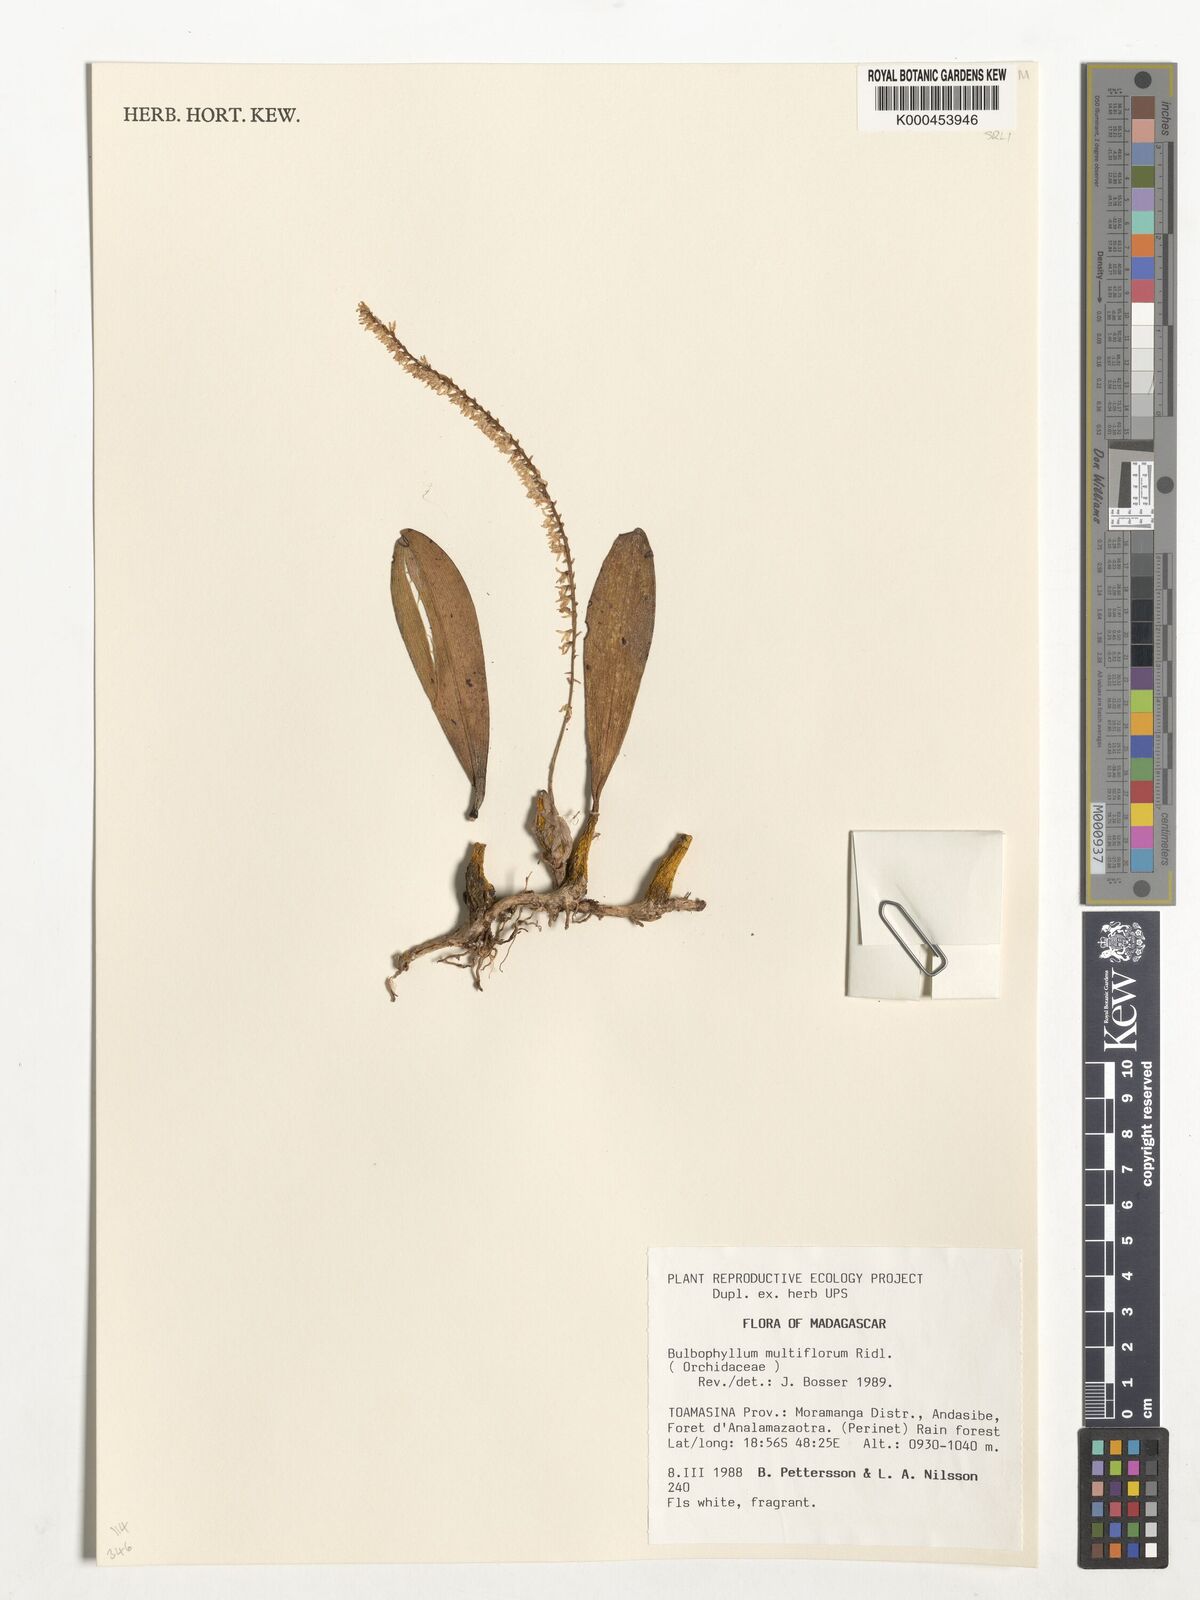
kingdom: Plantae
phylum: Tracheophyta
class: Liliopsida
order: Asparagales
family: Orchidaceae
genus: Bulbophyllum
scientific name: Bulbophyllum multiflorum
